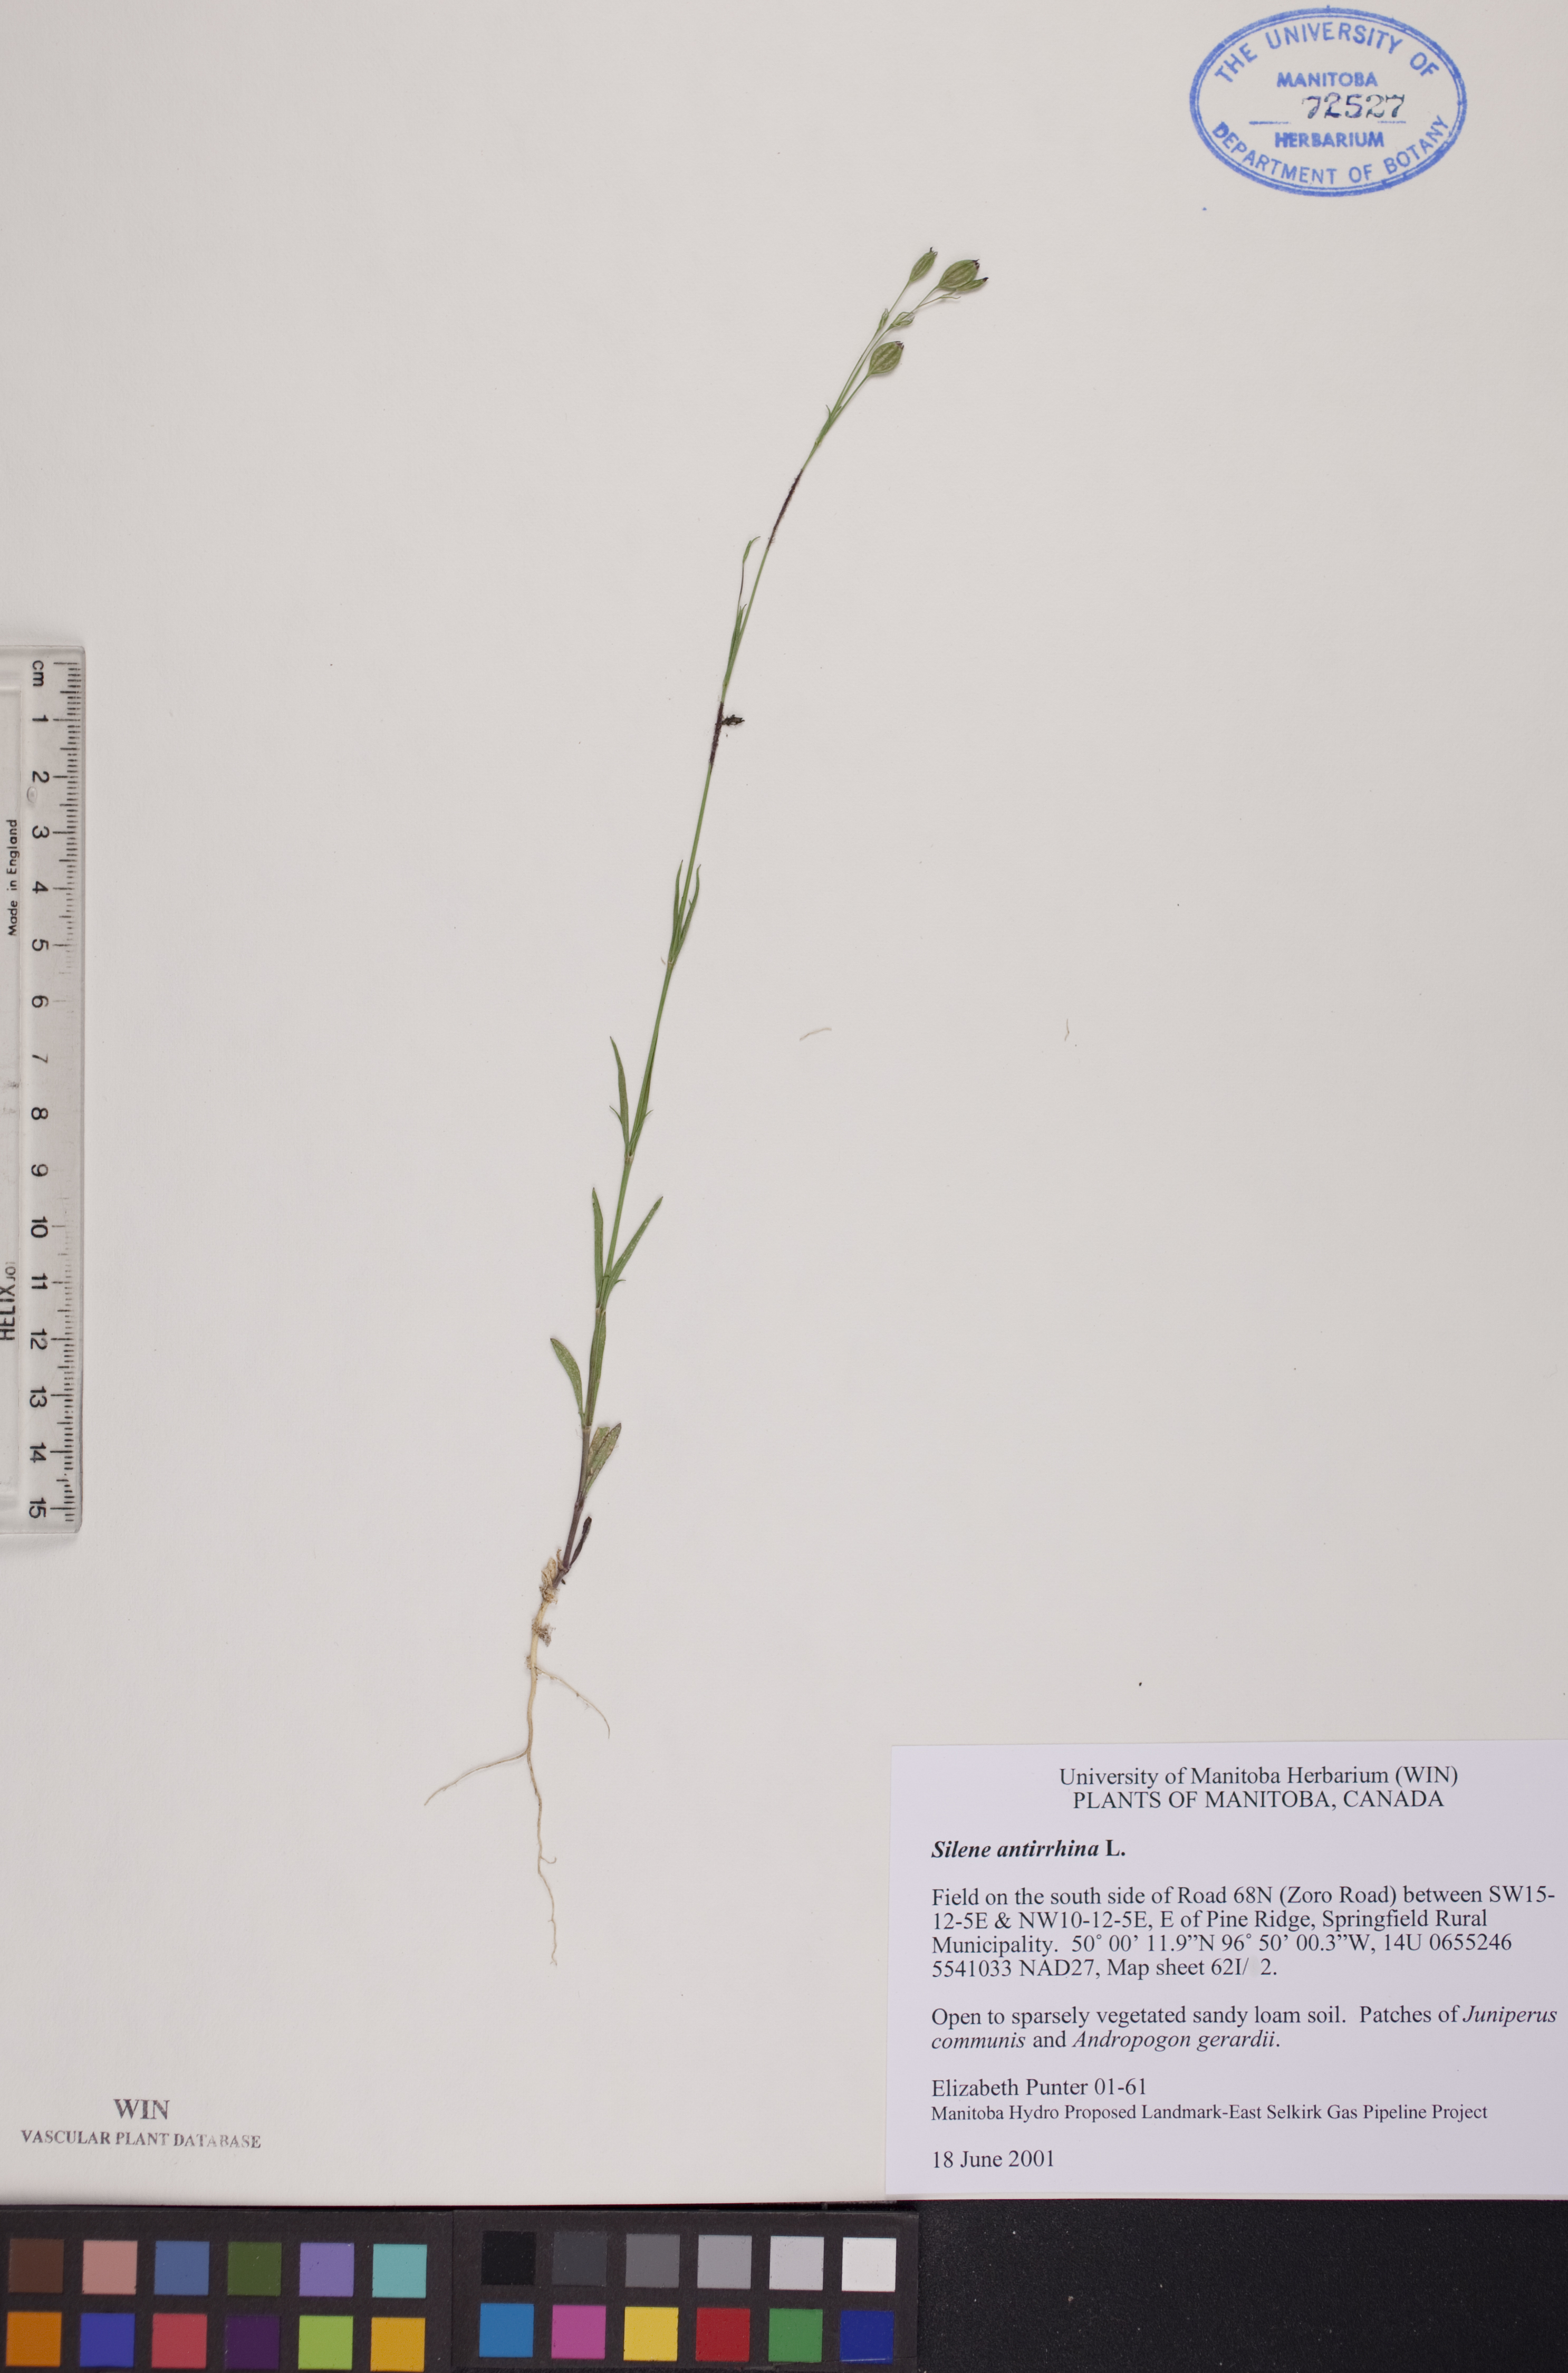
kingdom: Plantae
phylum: Tracheophyta
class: Magnoliopsida
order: Caryophyllales
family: Caryophyllaceae
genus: Silene
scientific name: Silene antirrhina
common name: Sleepy catchfly
